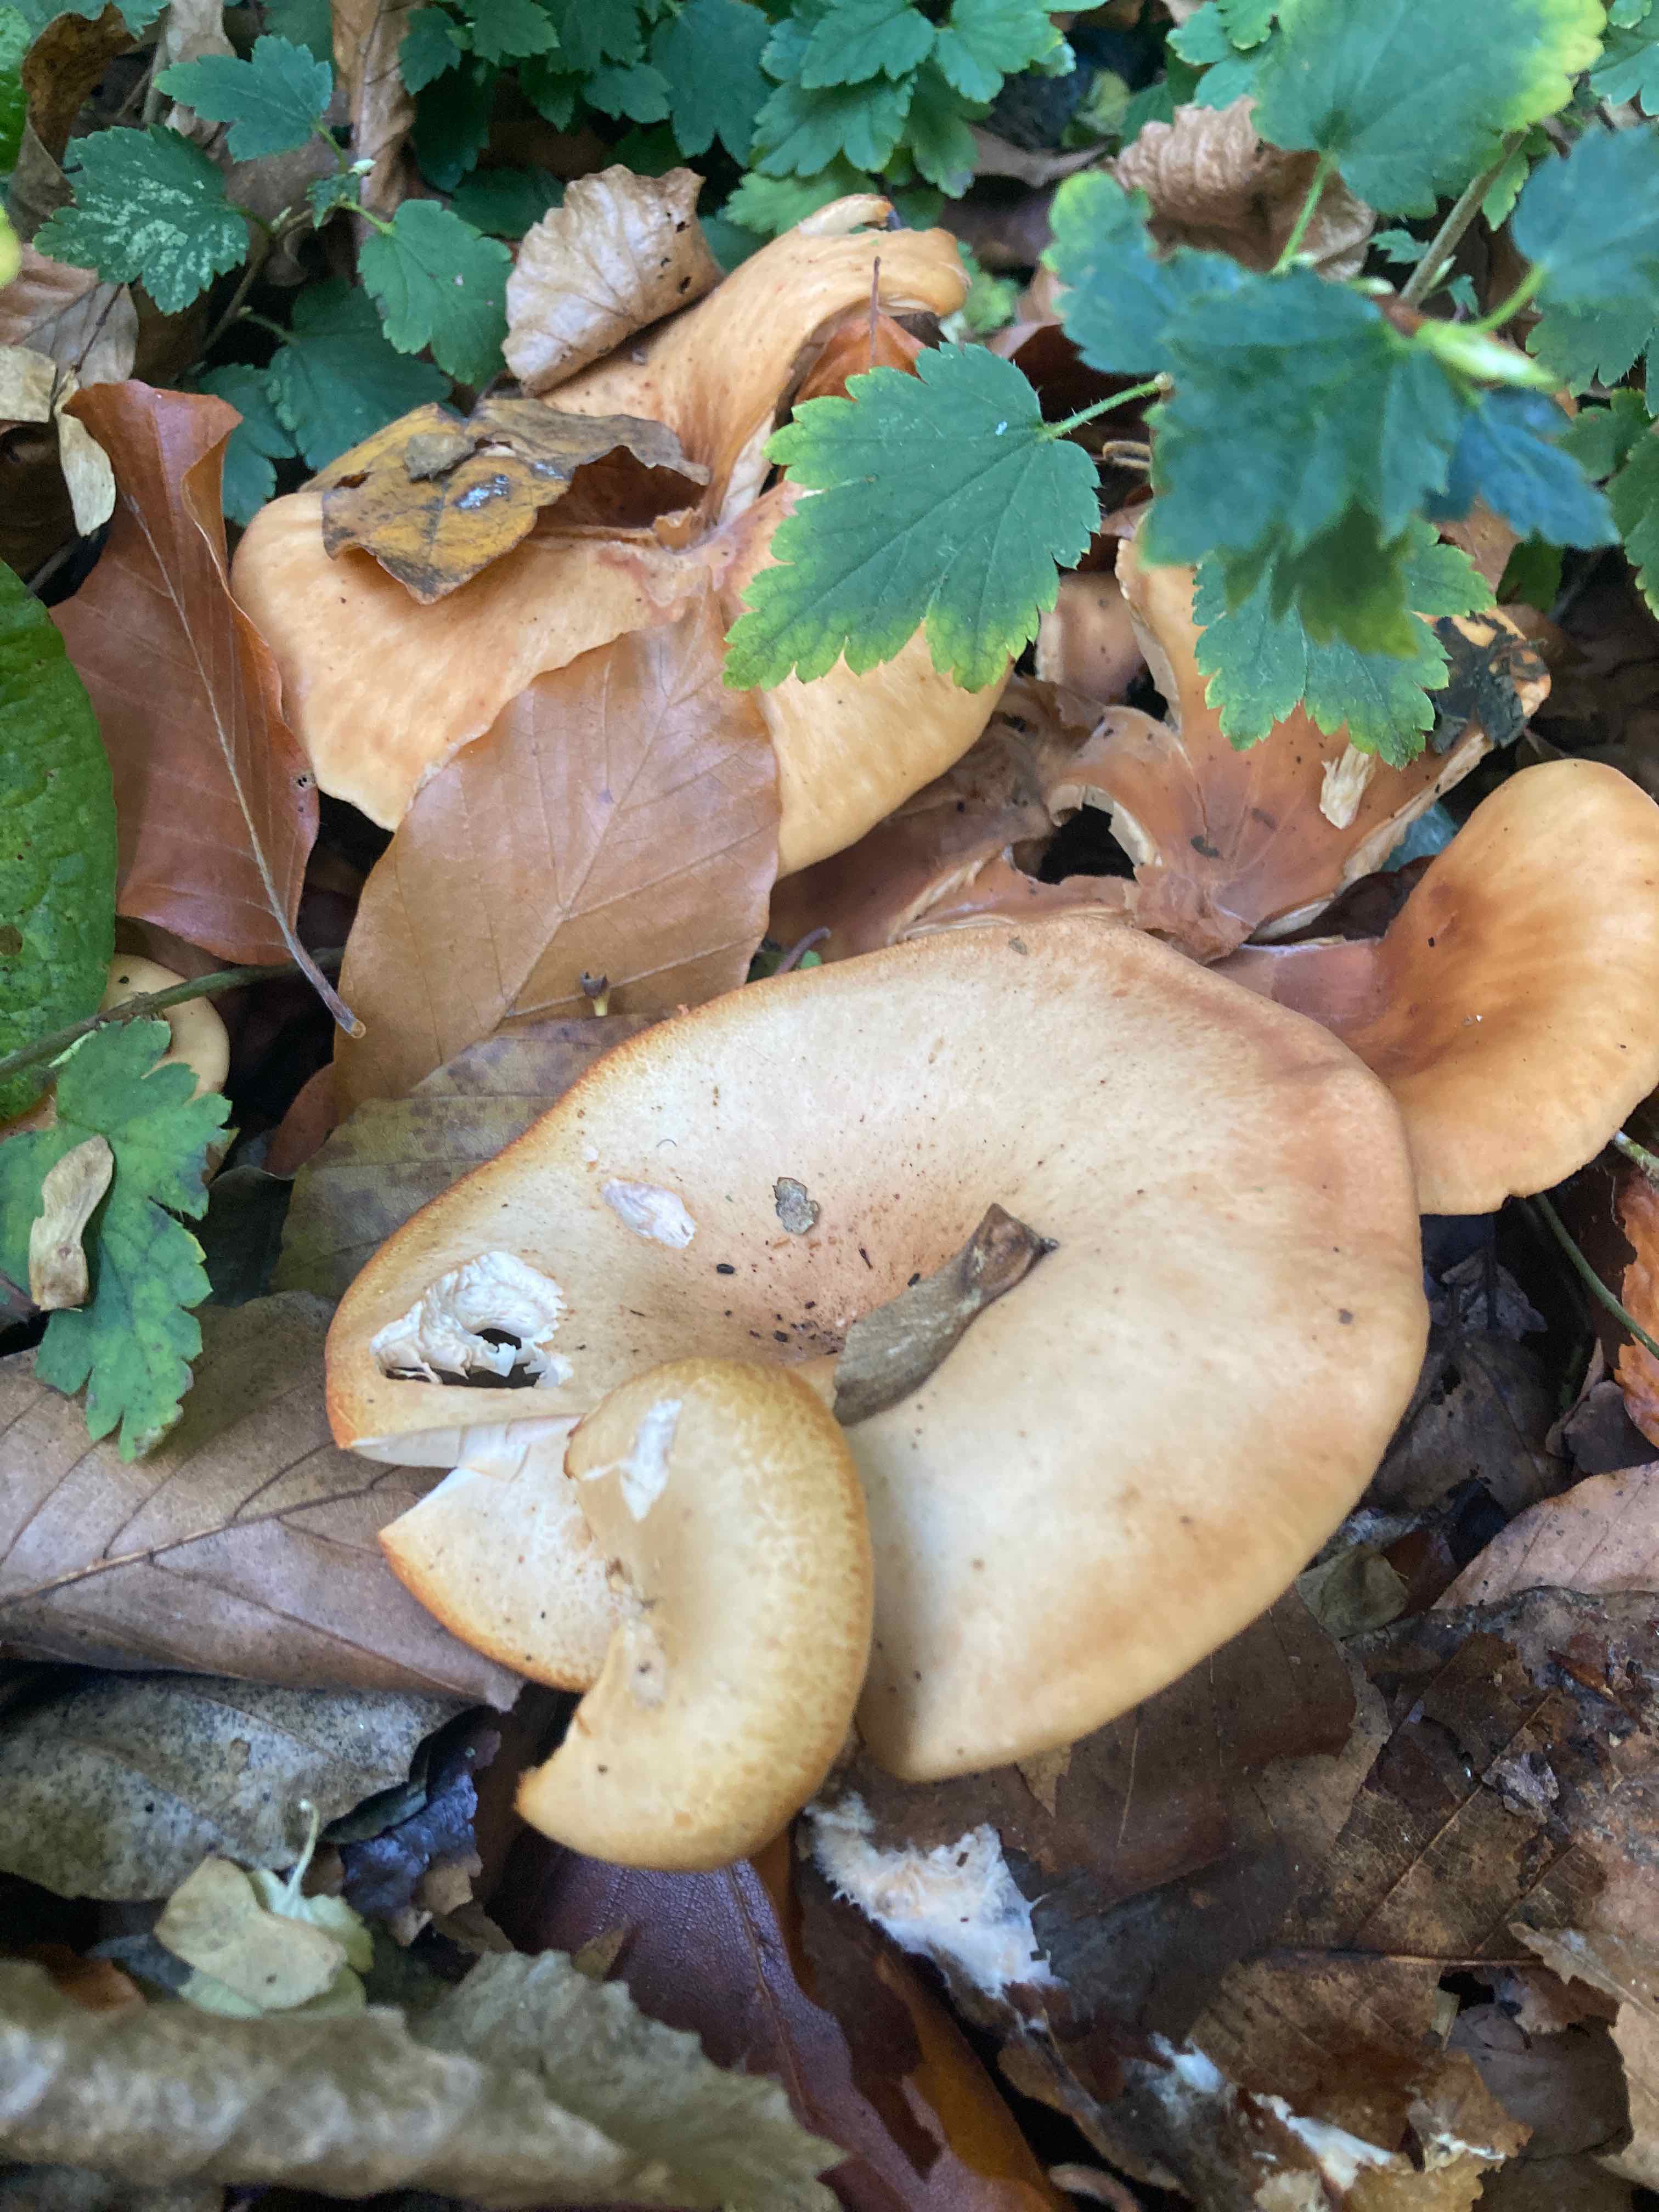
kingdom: Fungi
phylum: Basidiomycota
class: Agaricomycetes
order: Agaricales
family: Tricholomataceae
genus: Paralepista
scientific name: Paralepista gilva
